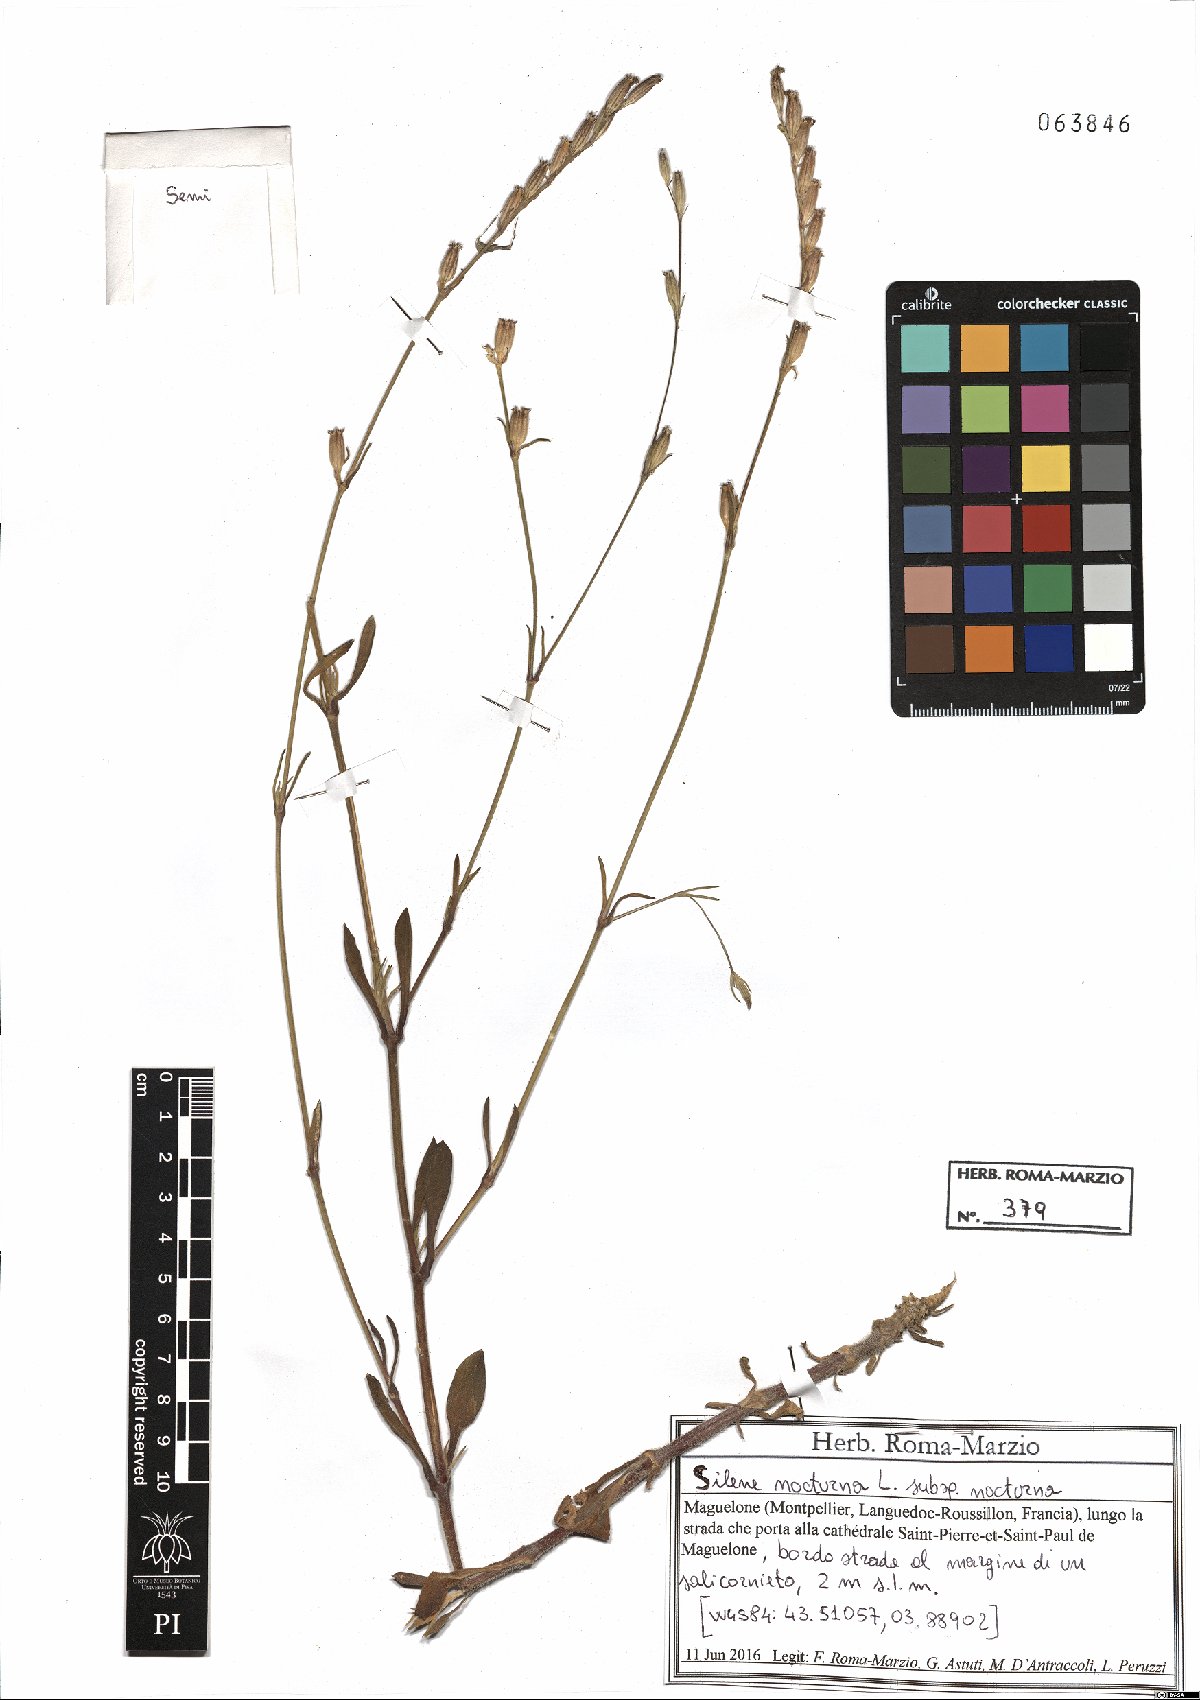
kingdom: Plantae
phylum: Tracheophyta
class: Magnoliopsida
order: Caryophyllales
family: Caryophyllaceae
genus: Silene
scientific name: Silene nocturna
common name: Mediterranean catchfly
